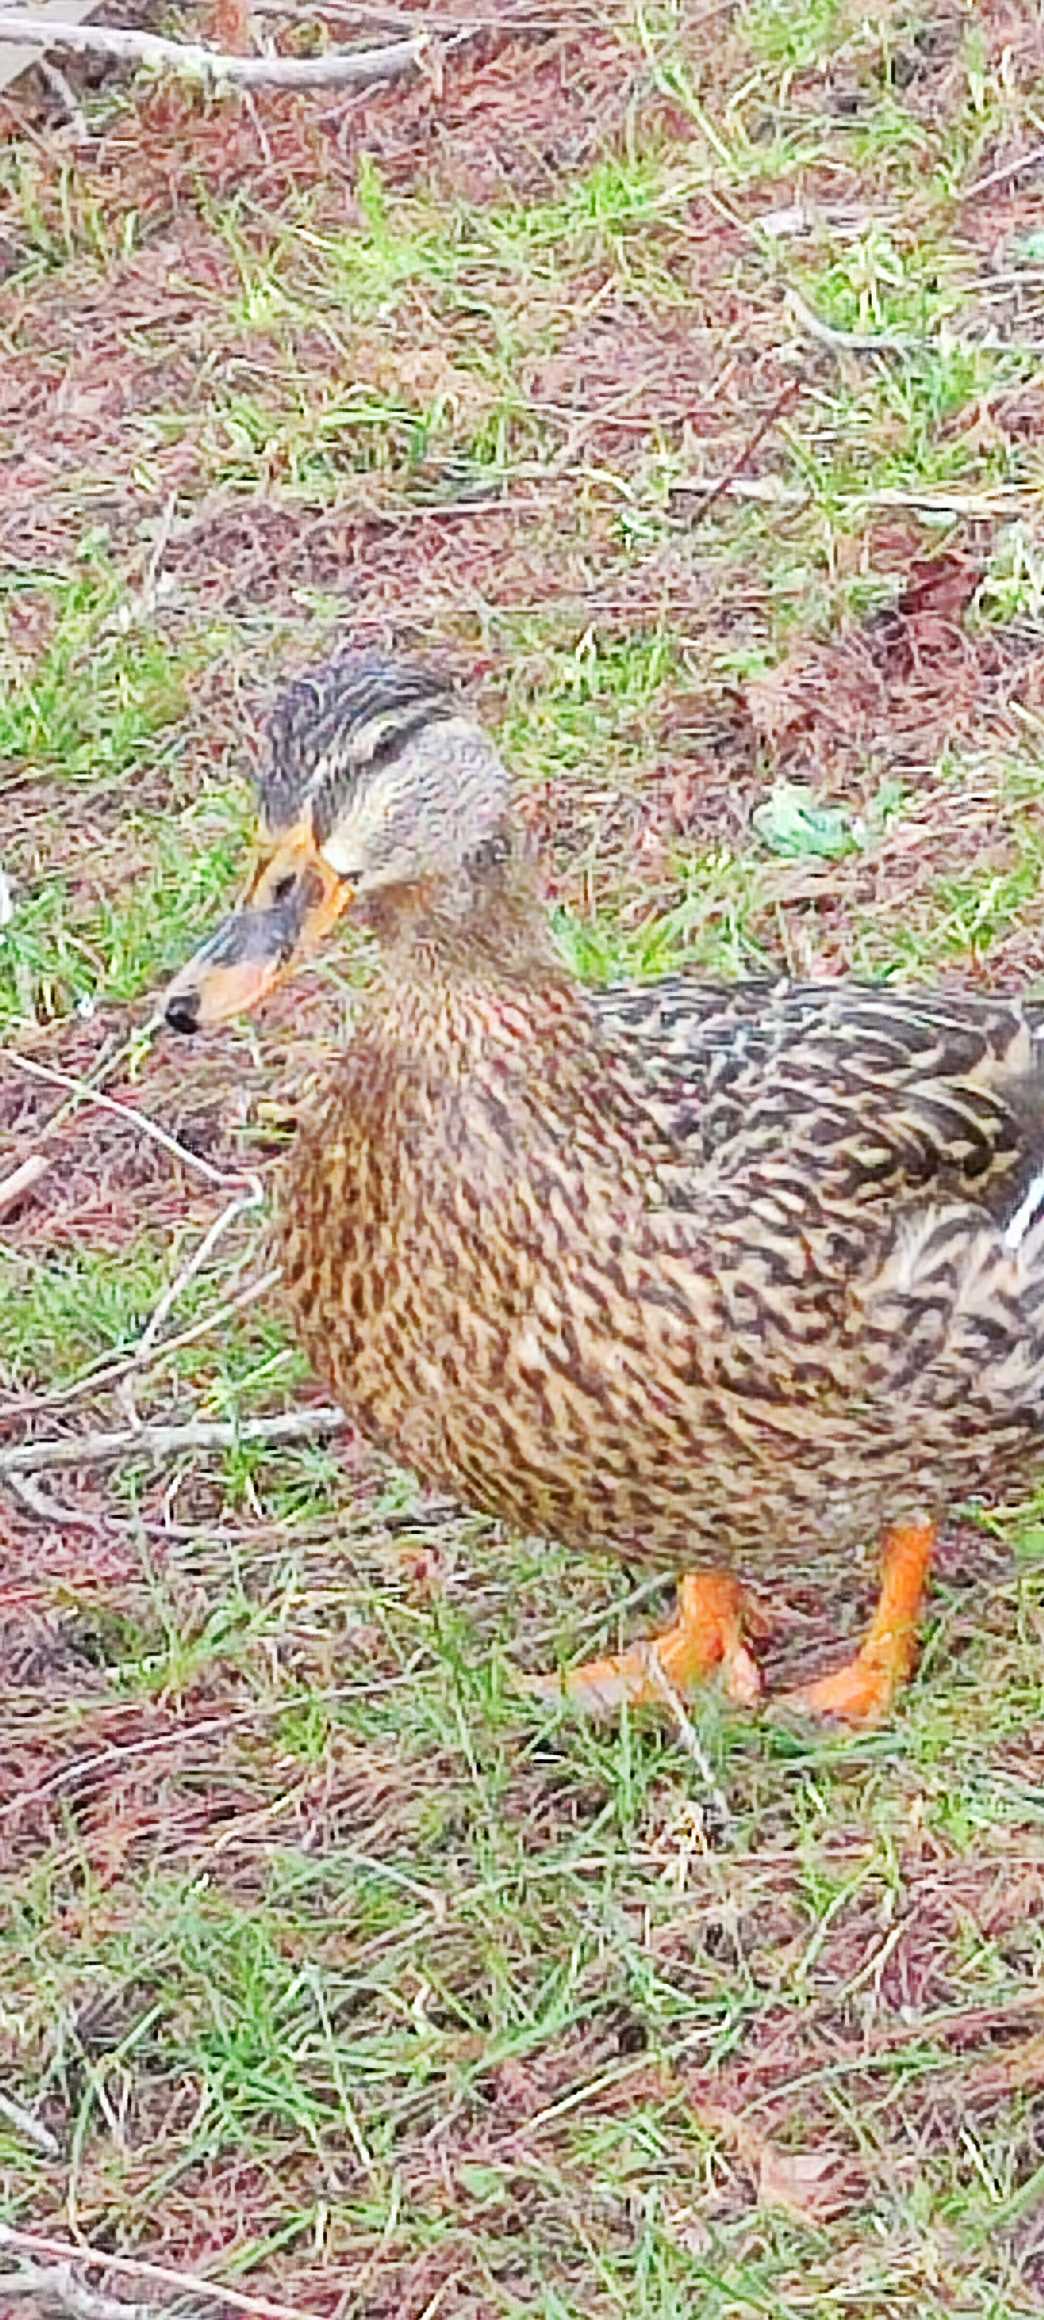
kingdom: Animalia
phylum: Chordata
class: Aves
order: Anseriformes
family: Anatidae
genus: Anas
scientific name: Anas platyrhynchos
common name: Gråand
